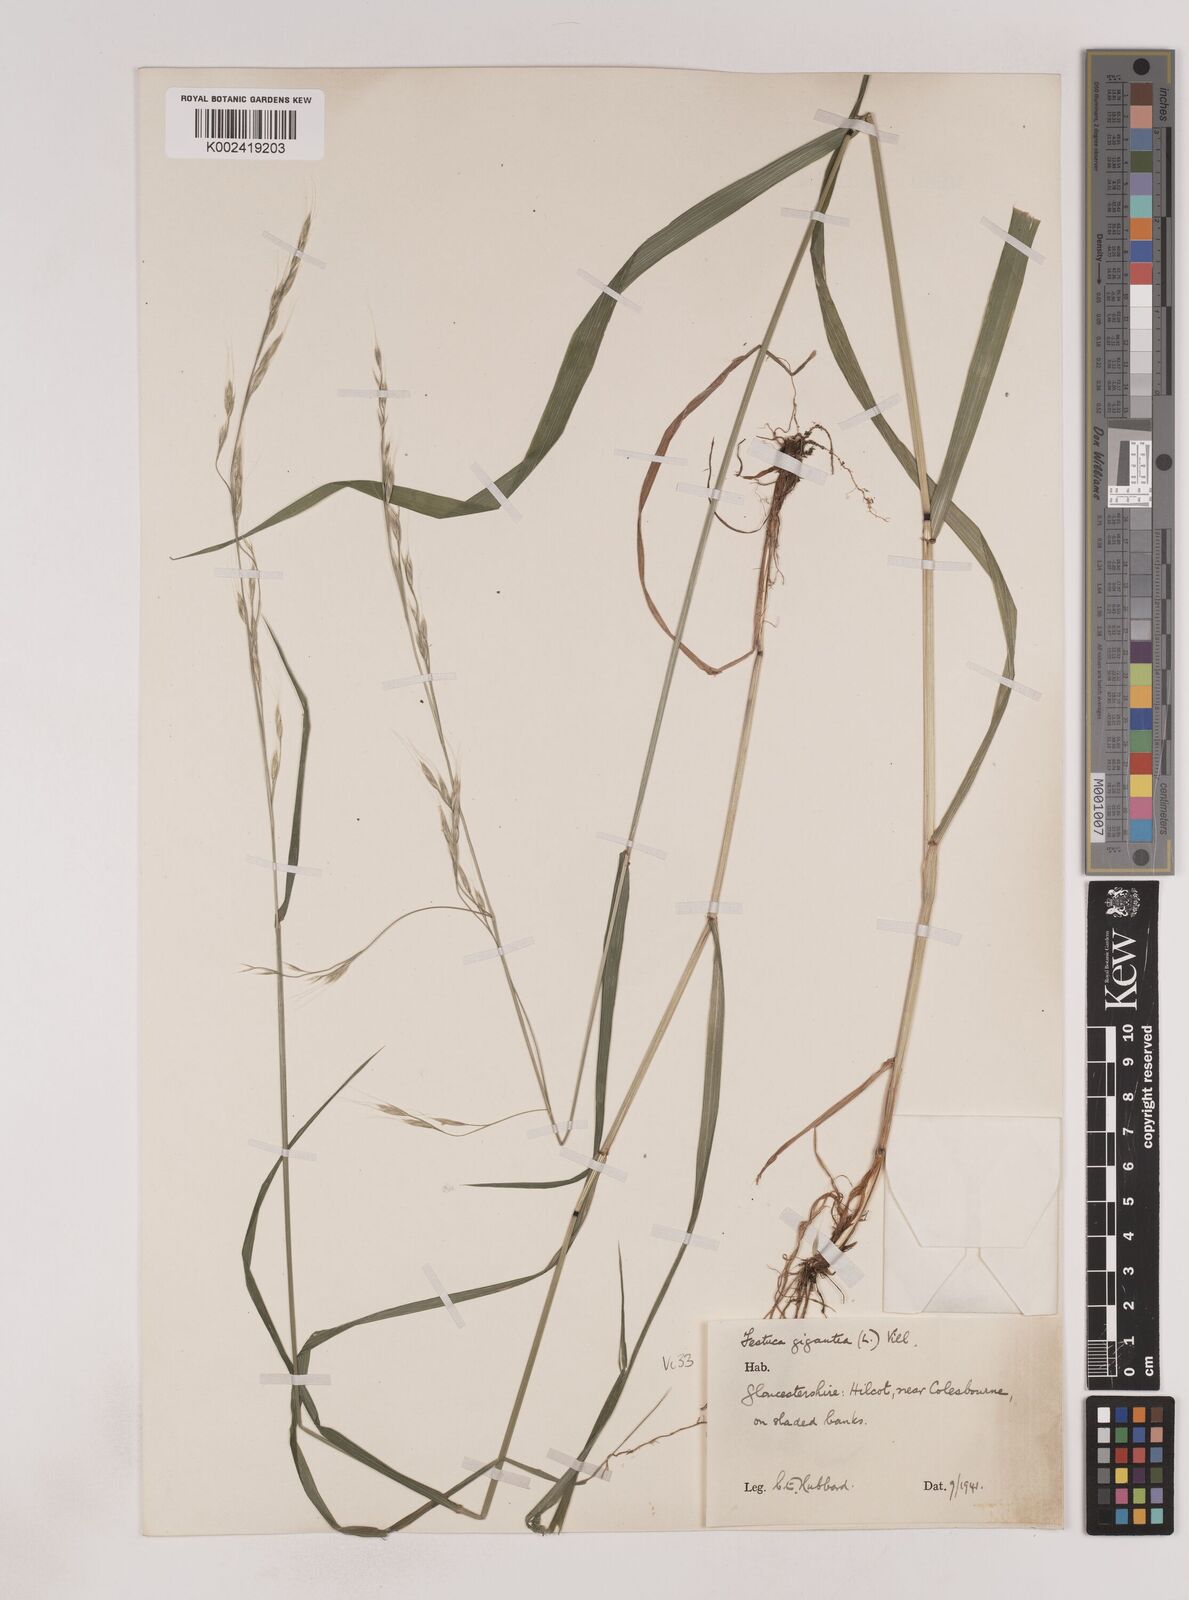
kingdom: Plantae
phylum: Tracheophyta
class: Liliopsida
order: Poales
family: Poaceae
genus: Lolium
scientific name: Lolium giganteum
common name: Giant fescue
